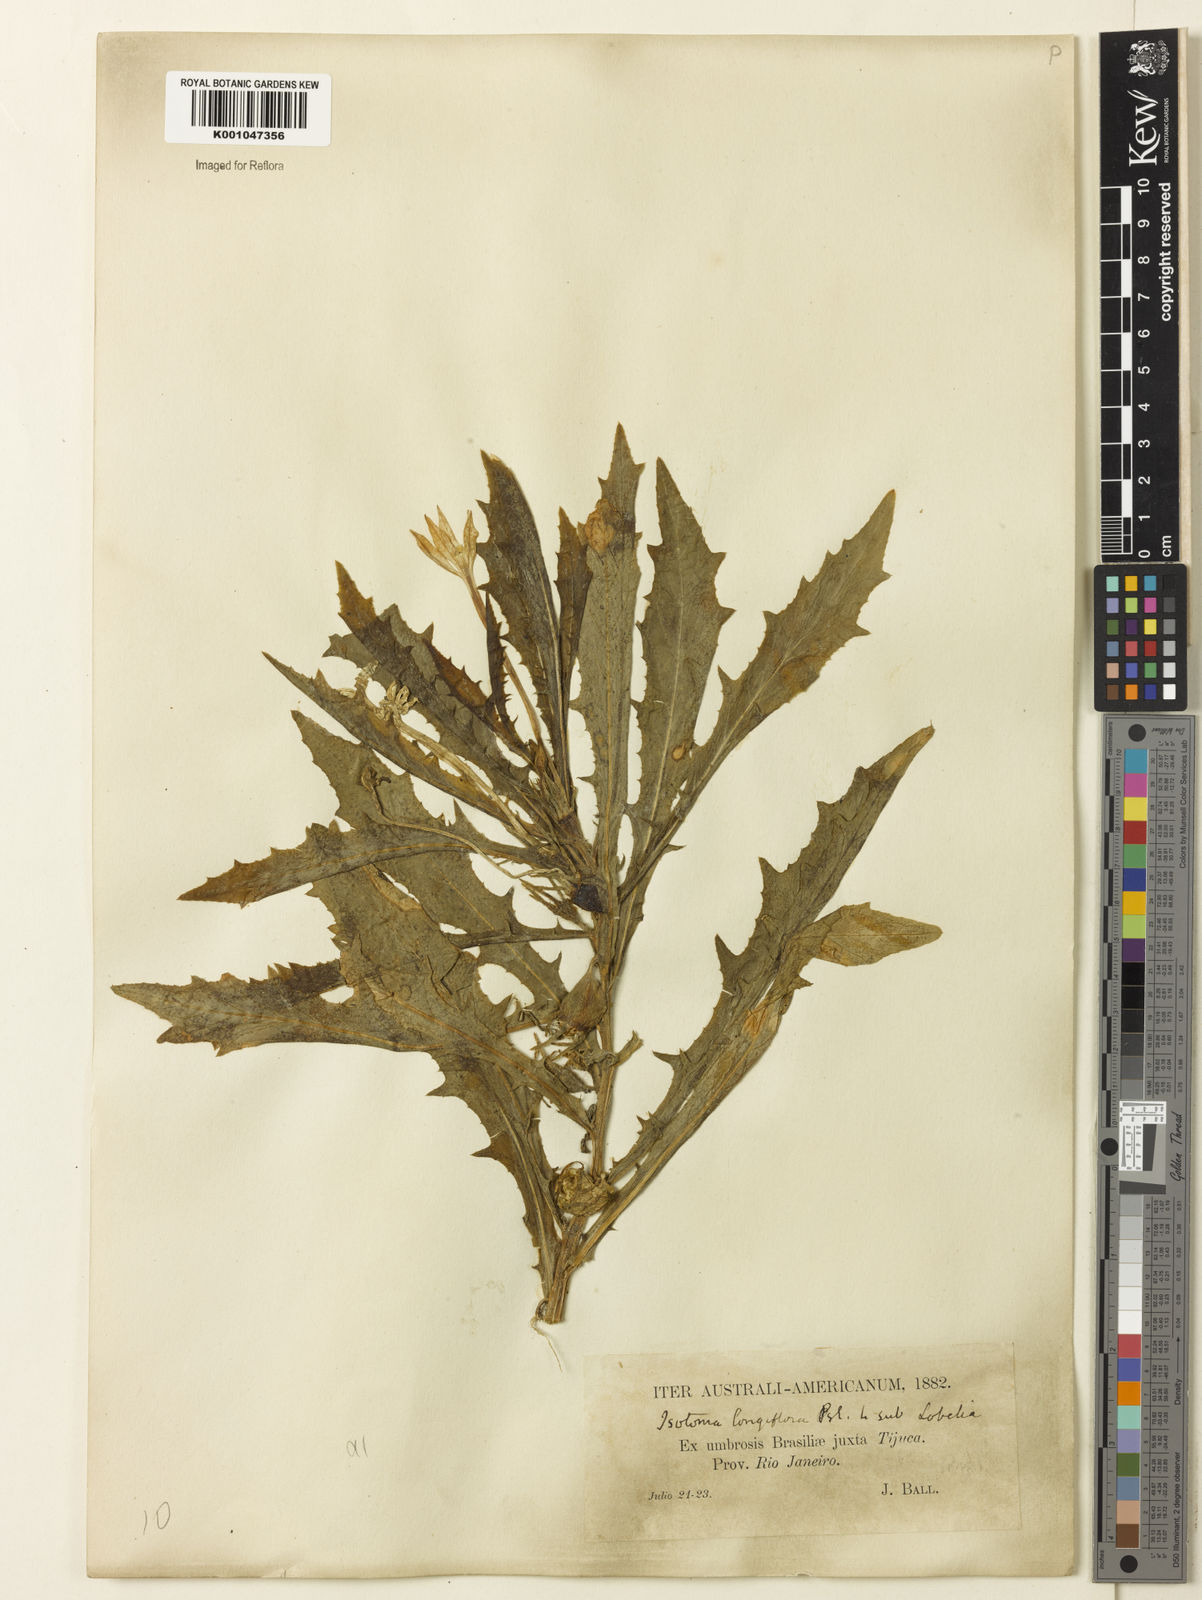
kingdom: Plantae
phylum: Tracheophyta
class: Magnoliopsida
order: Asterales
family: Campanulaceae
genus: Hippobroma
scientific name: Hippobroma longiflora
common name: Madamfate
